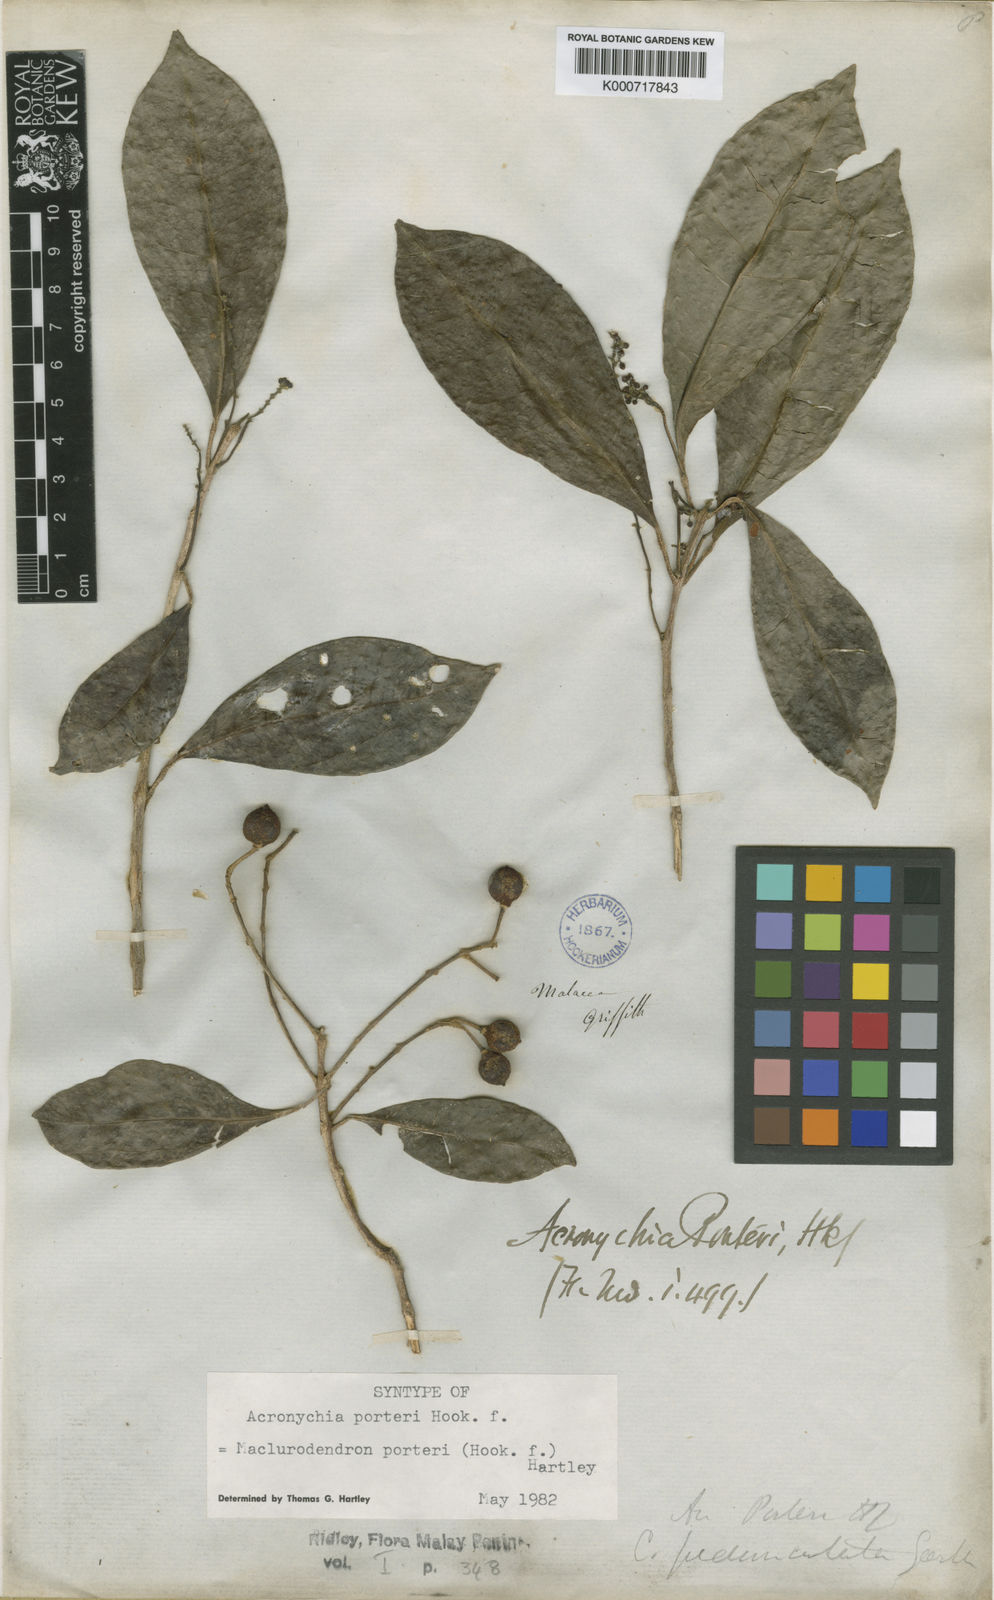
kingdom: Plantae
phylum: Tracheophyta
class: Magnoliopsida
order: Sapindales
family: Rutaceae
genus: Maclurodendron
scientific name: Maclurodendron porteri
